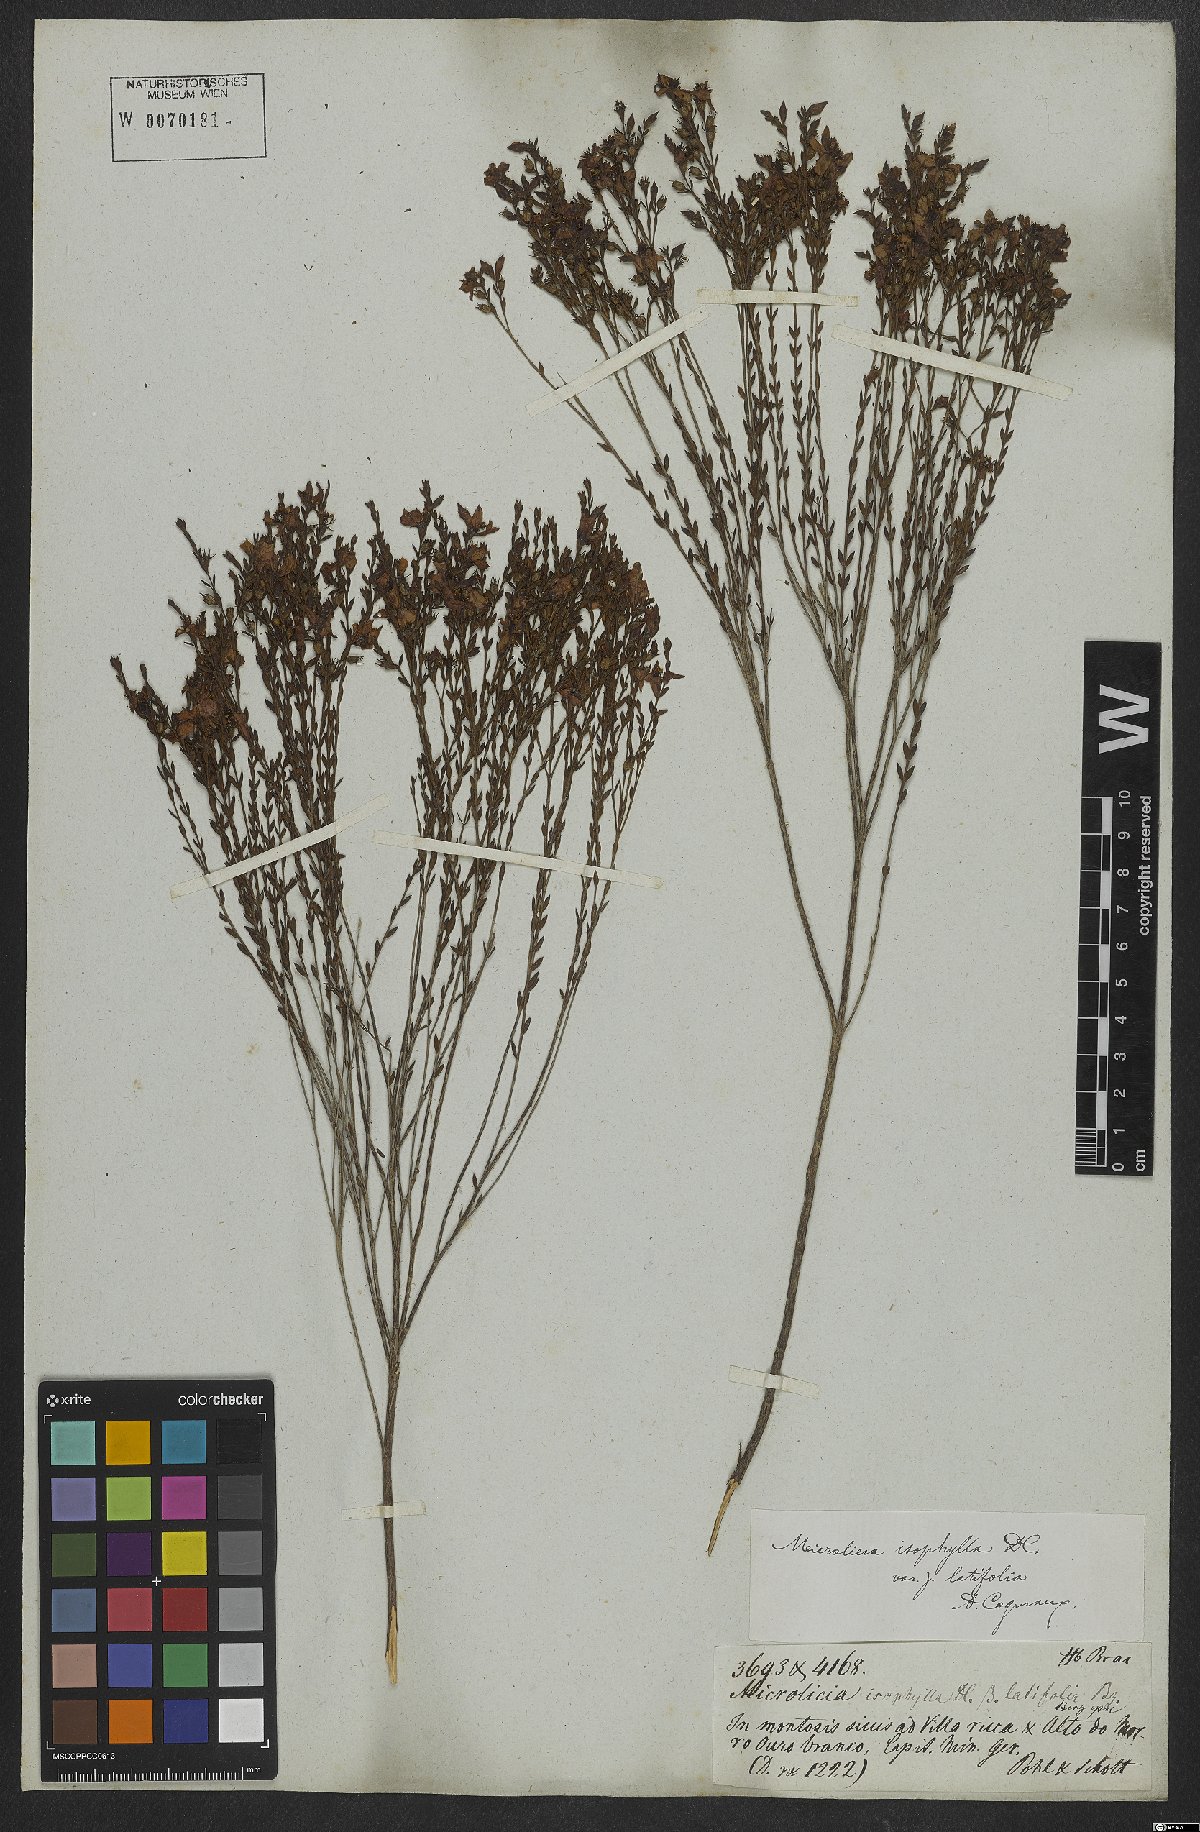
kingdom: Plantae
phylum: Tracheophyta
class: Magnoliopsida
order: Myrtales
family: Melastomataceae
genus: Microlicia
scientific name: Microlicia isophylla
